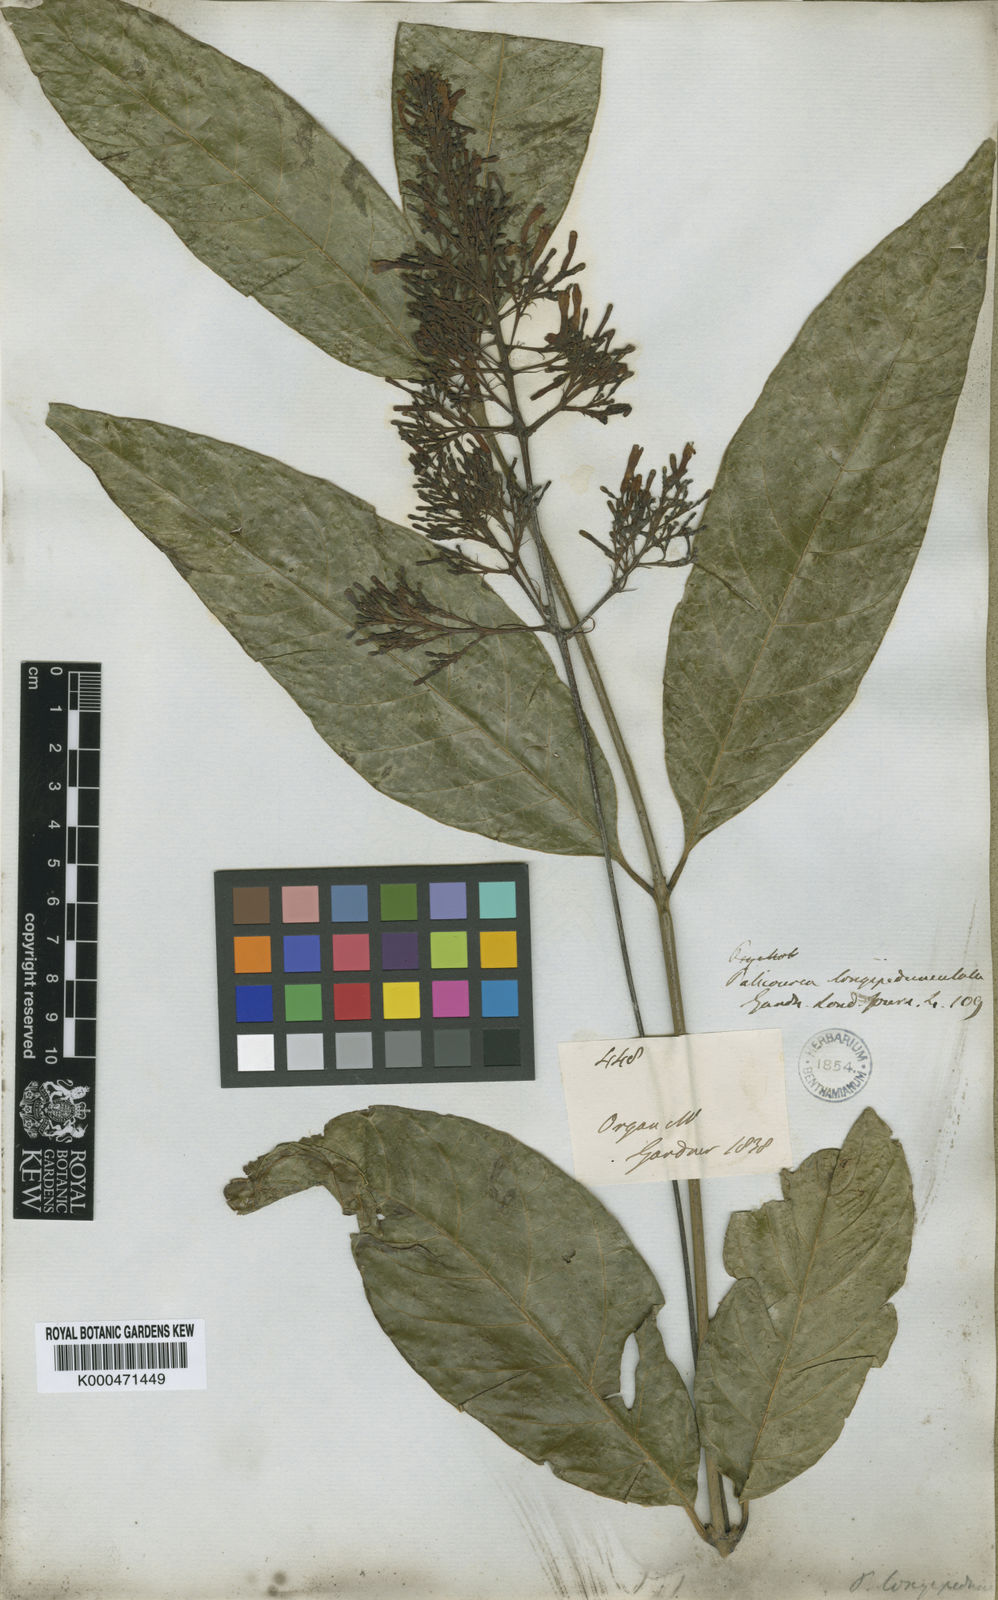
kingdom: Plantae
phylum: Tracheophyta
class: Magnoliopsida
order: Gentianales
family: Rubiaceae
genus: Palicourea
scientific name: Palicourea longipedunculata
